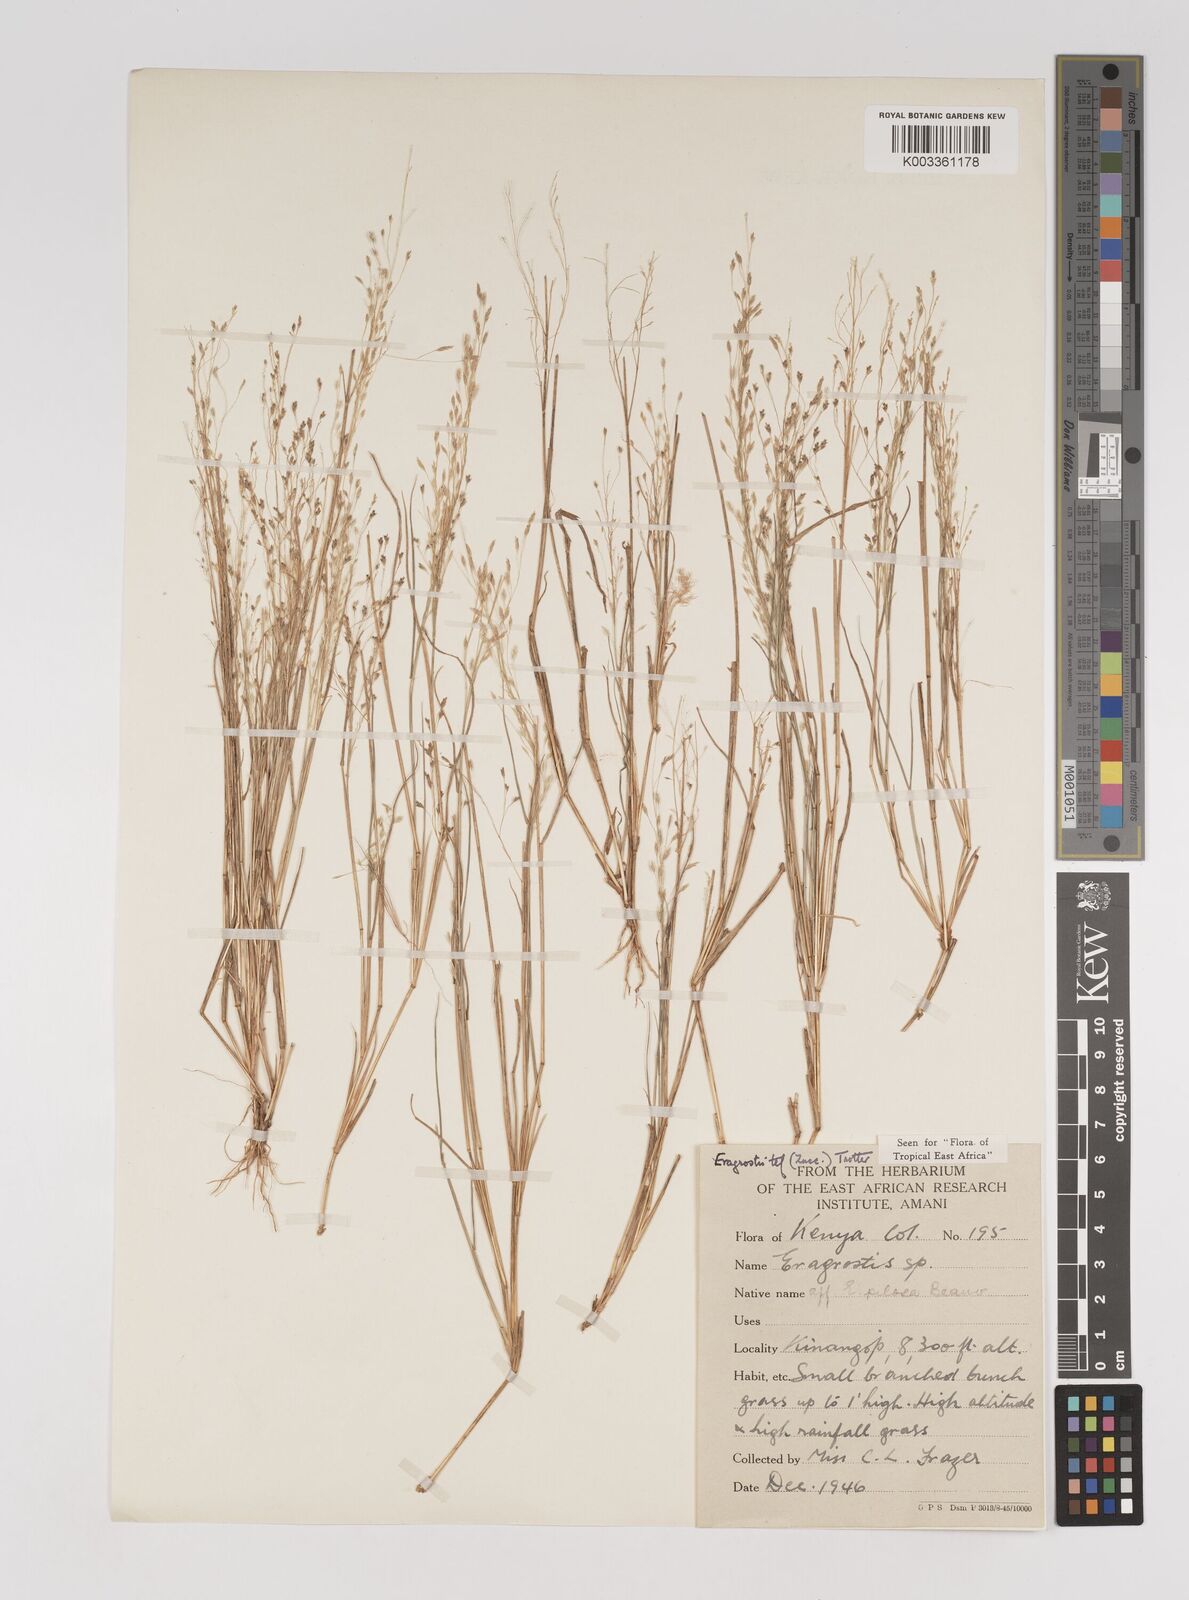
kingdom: Plantae
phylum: Tracheophyta
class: Liliopsida
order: Poales
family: Poaceae
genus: Eragrostis
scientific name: Eragrostis tef
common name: Teff
